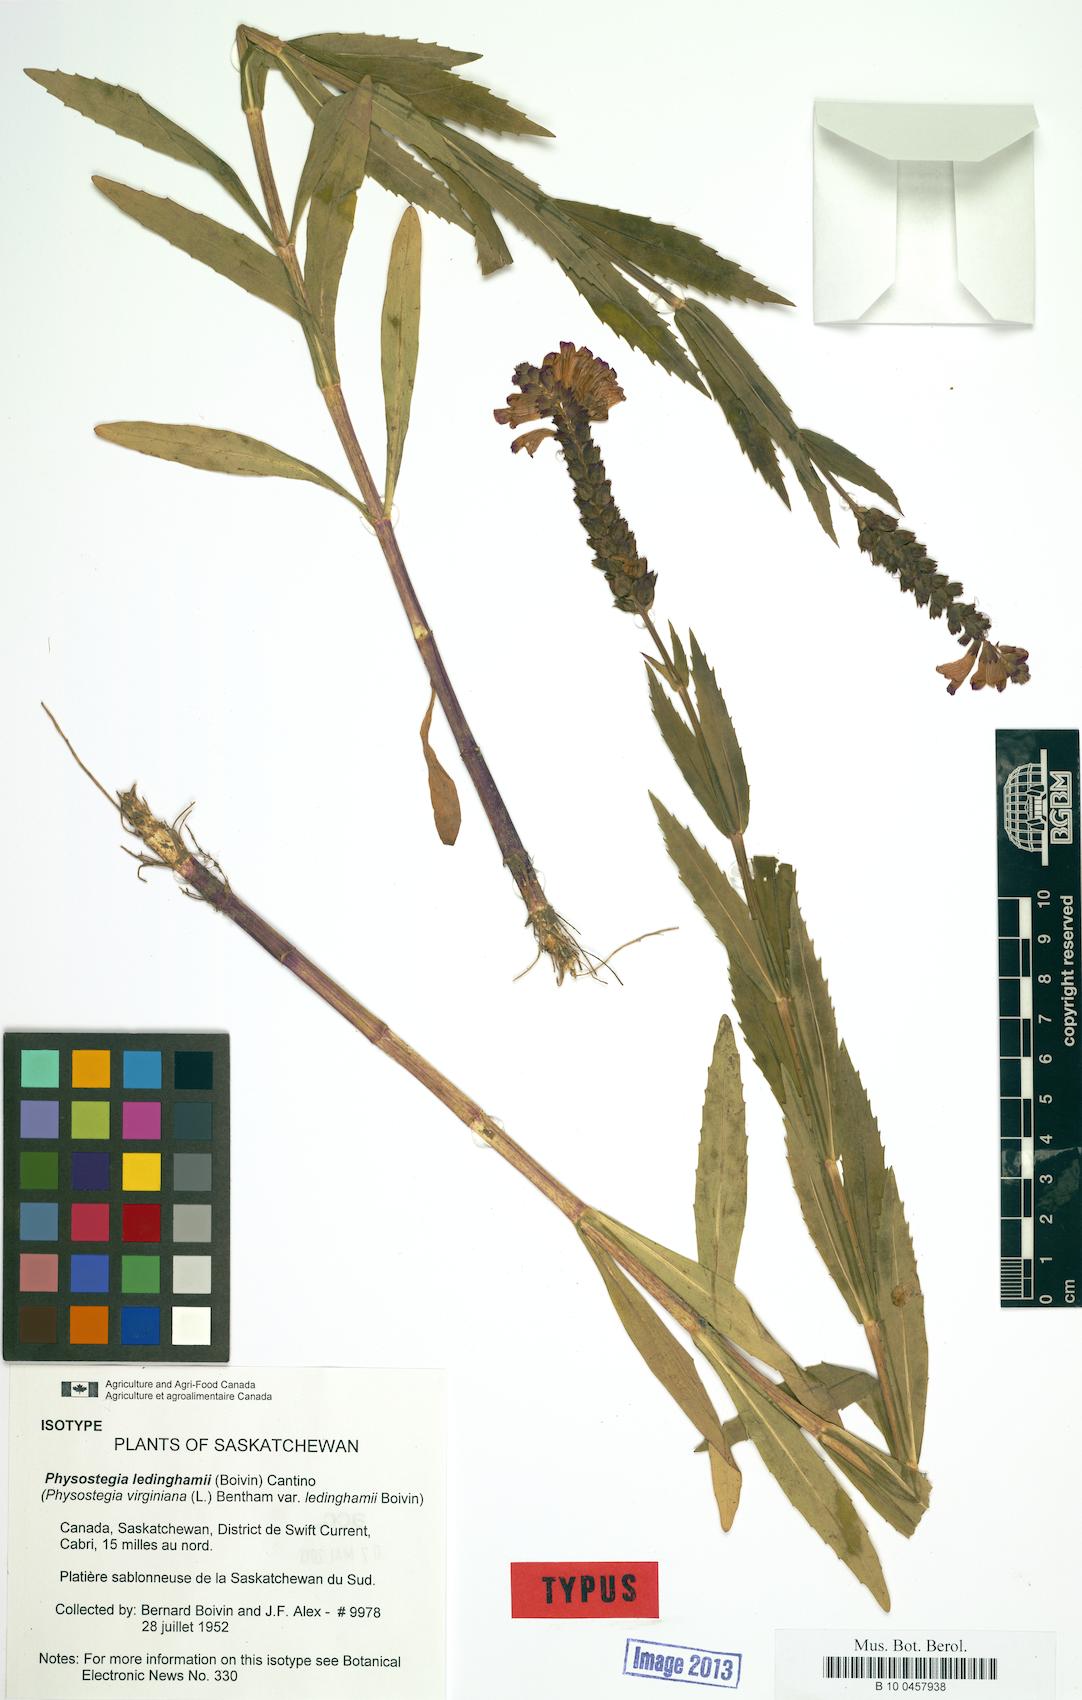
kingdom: Plantae
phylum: Tracheophyta
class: Magnoliopsida
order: Lamiales
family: Lamiaceae
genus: Physostegia
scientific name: Physostegia ledinghamii
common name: Ledingham's false dragonhead
